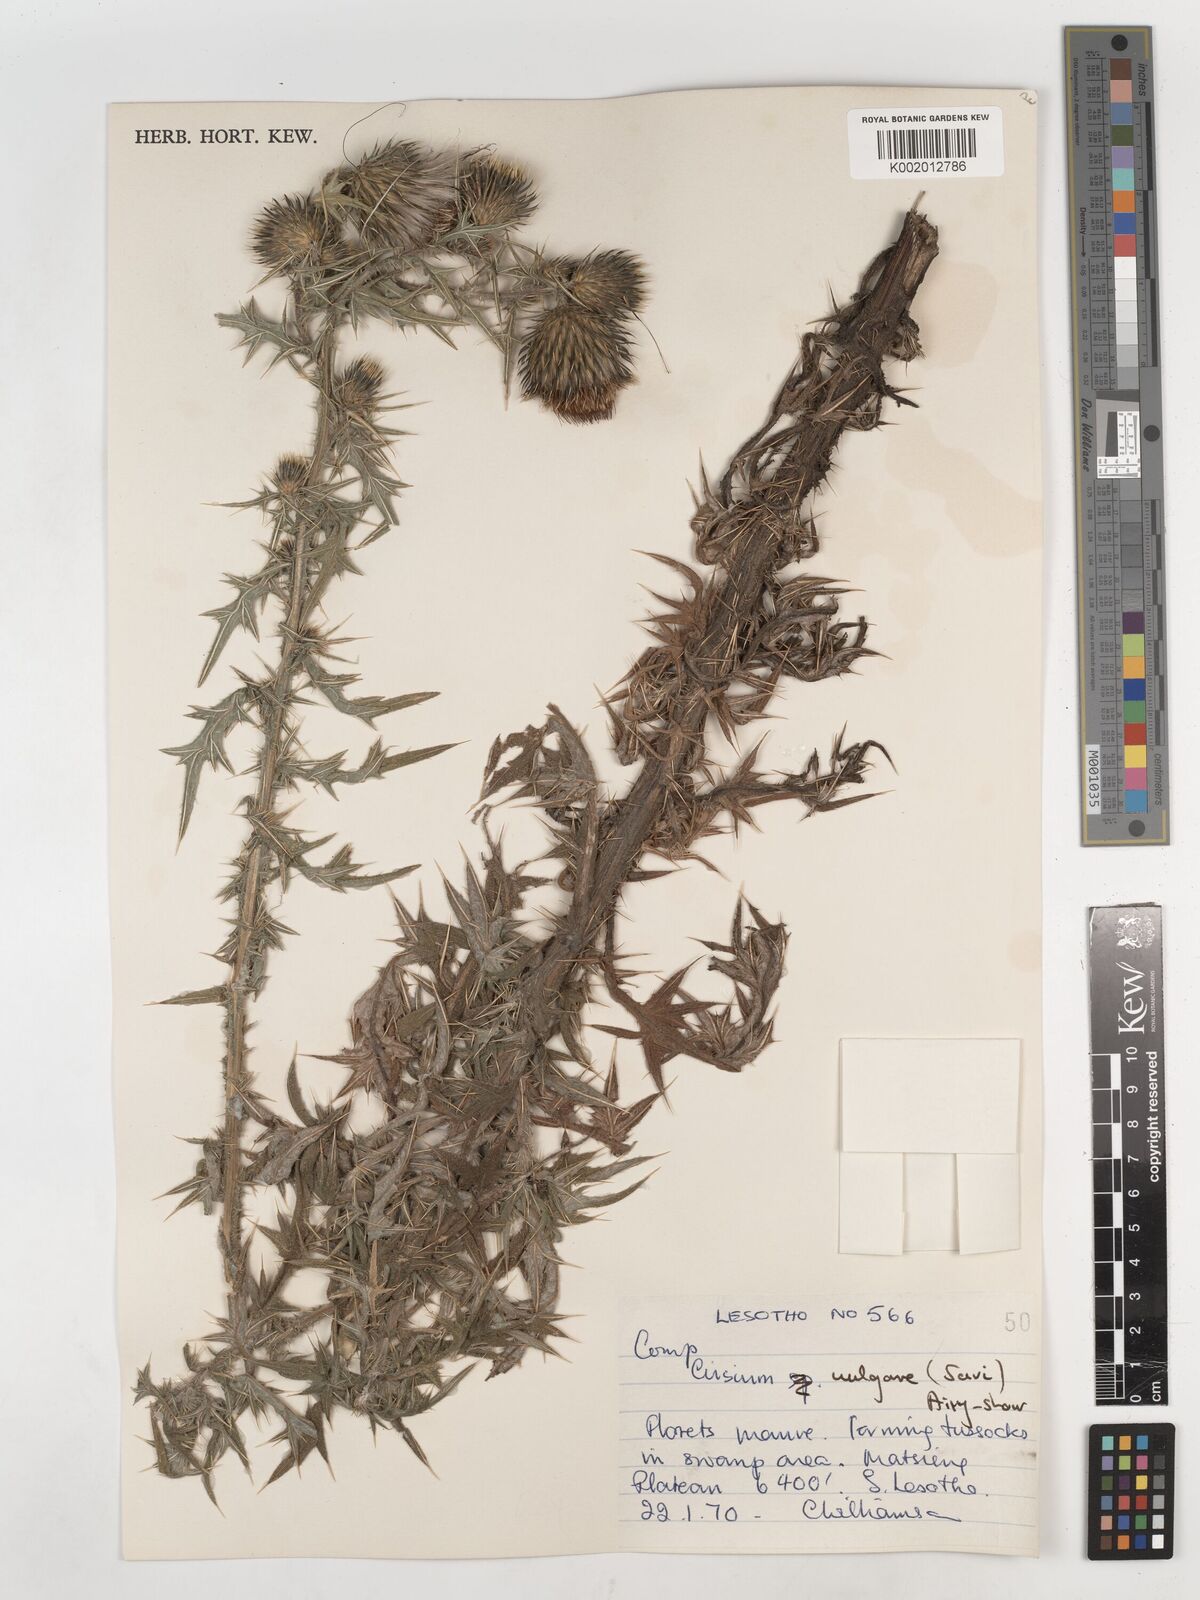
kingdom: Plantae
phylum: Tracheophyta
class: Magnoliopsida
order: Asterales
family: Asteraceae
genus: Cirsium
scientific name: Cirsium vulgare
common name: Bull thistle
